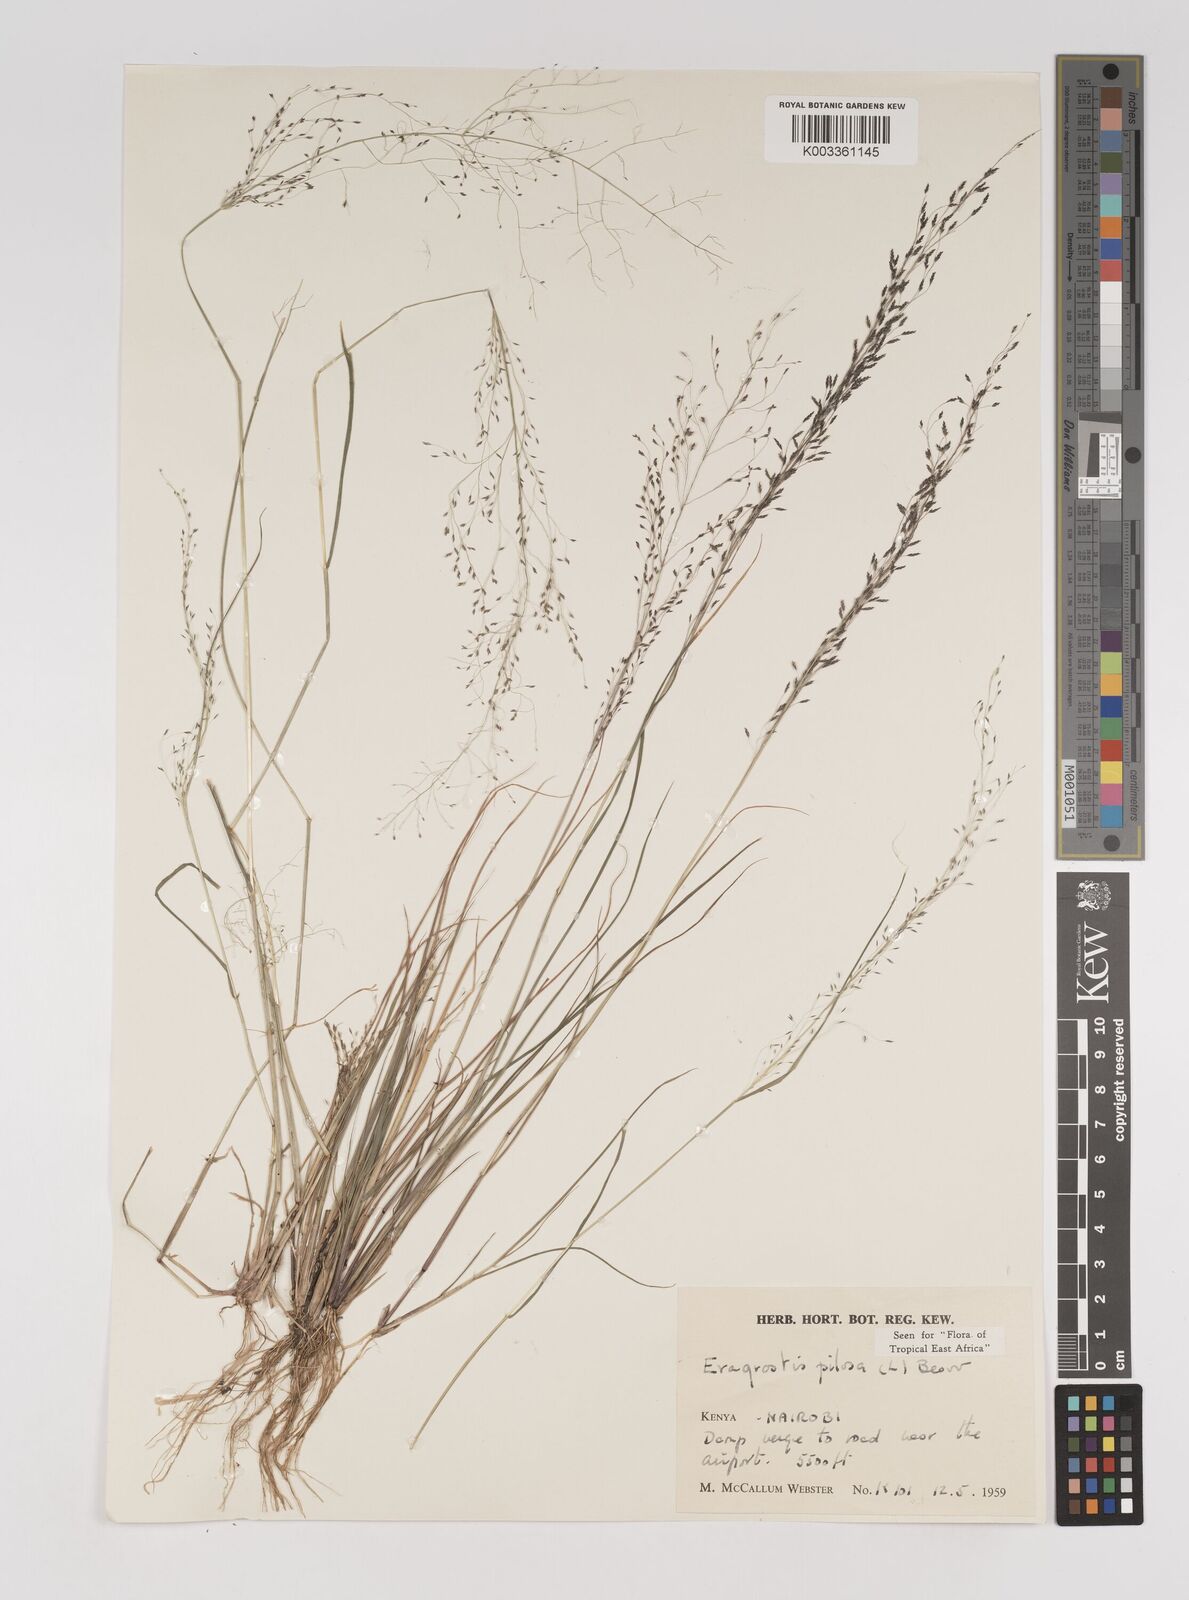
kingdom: Plantae
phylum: Tracheophyta
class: Liliopsida
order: Poales
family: Poaceae
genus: Eragrostis
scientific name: Eragrostis pilosa
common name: Indian lovegrass
